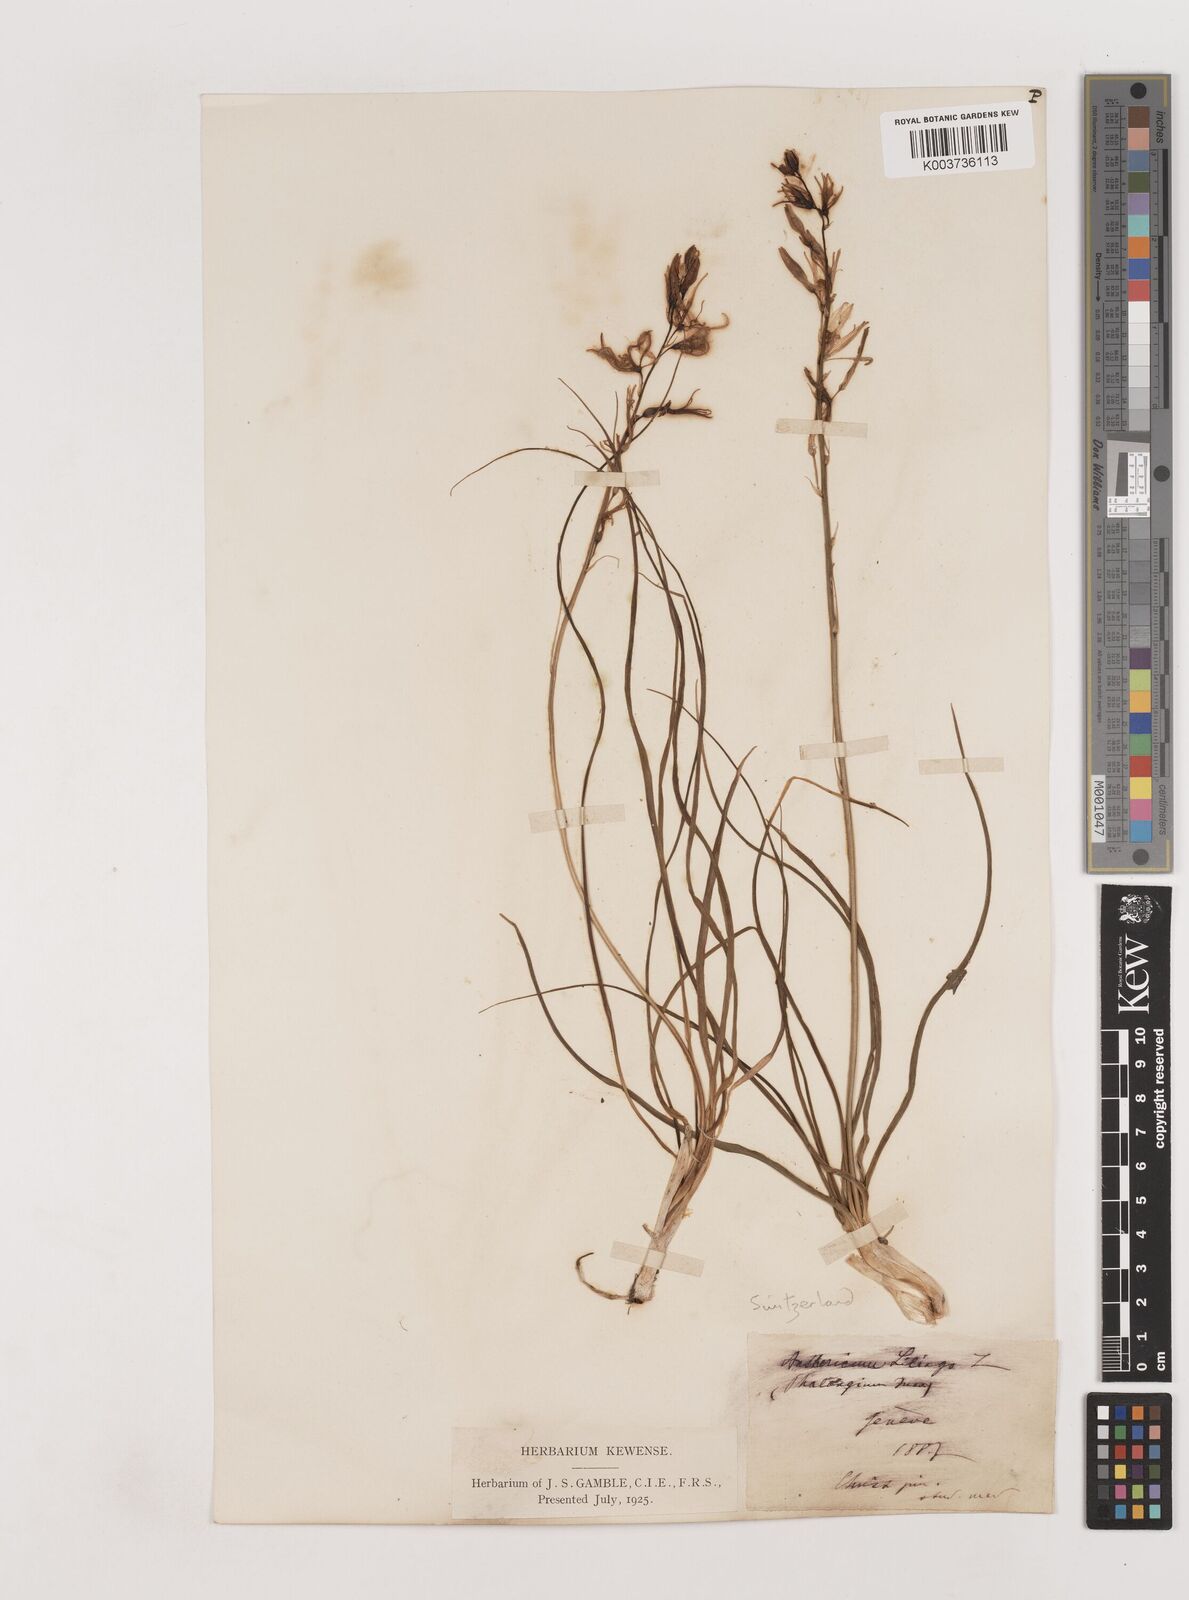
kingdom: Plantae
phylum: Tracheophyta
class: Liliopsida
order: Asparagales
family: Asparagaceae
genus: Anthericum
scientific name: Anthericum liliago
